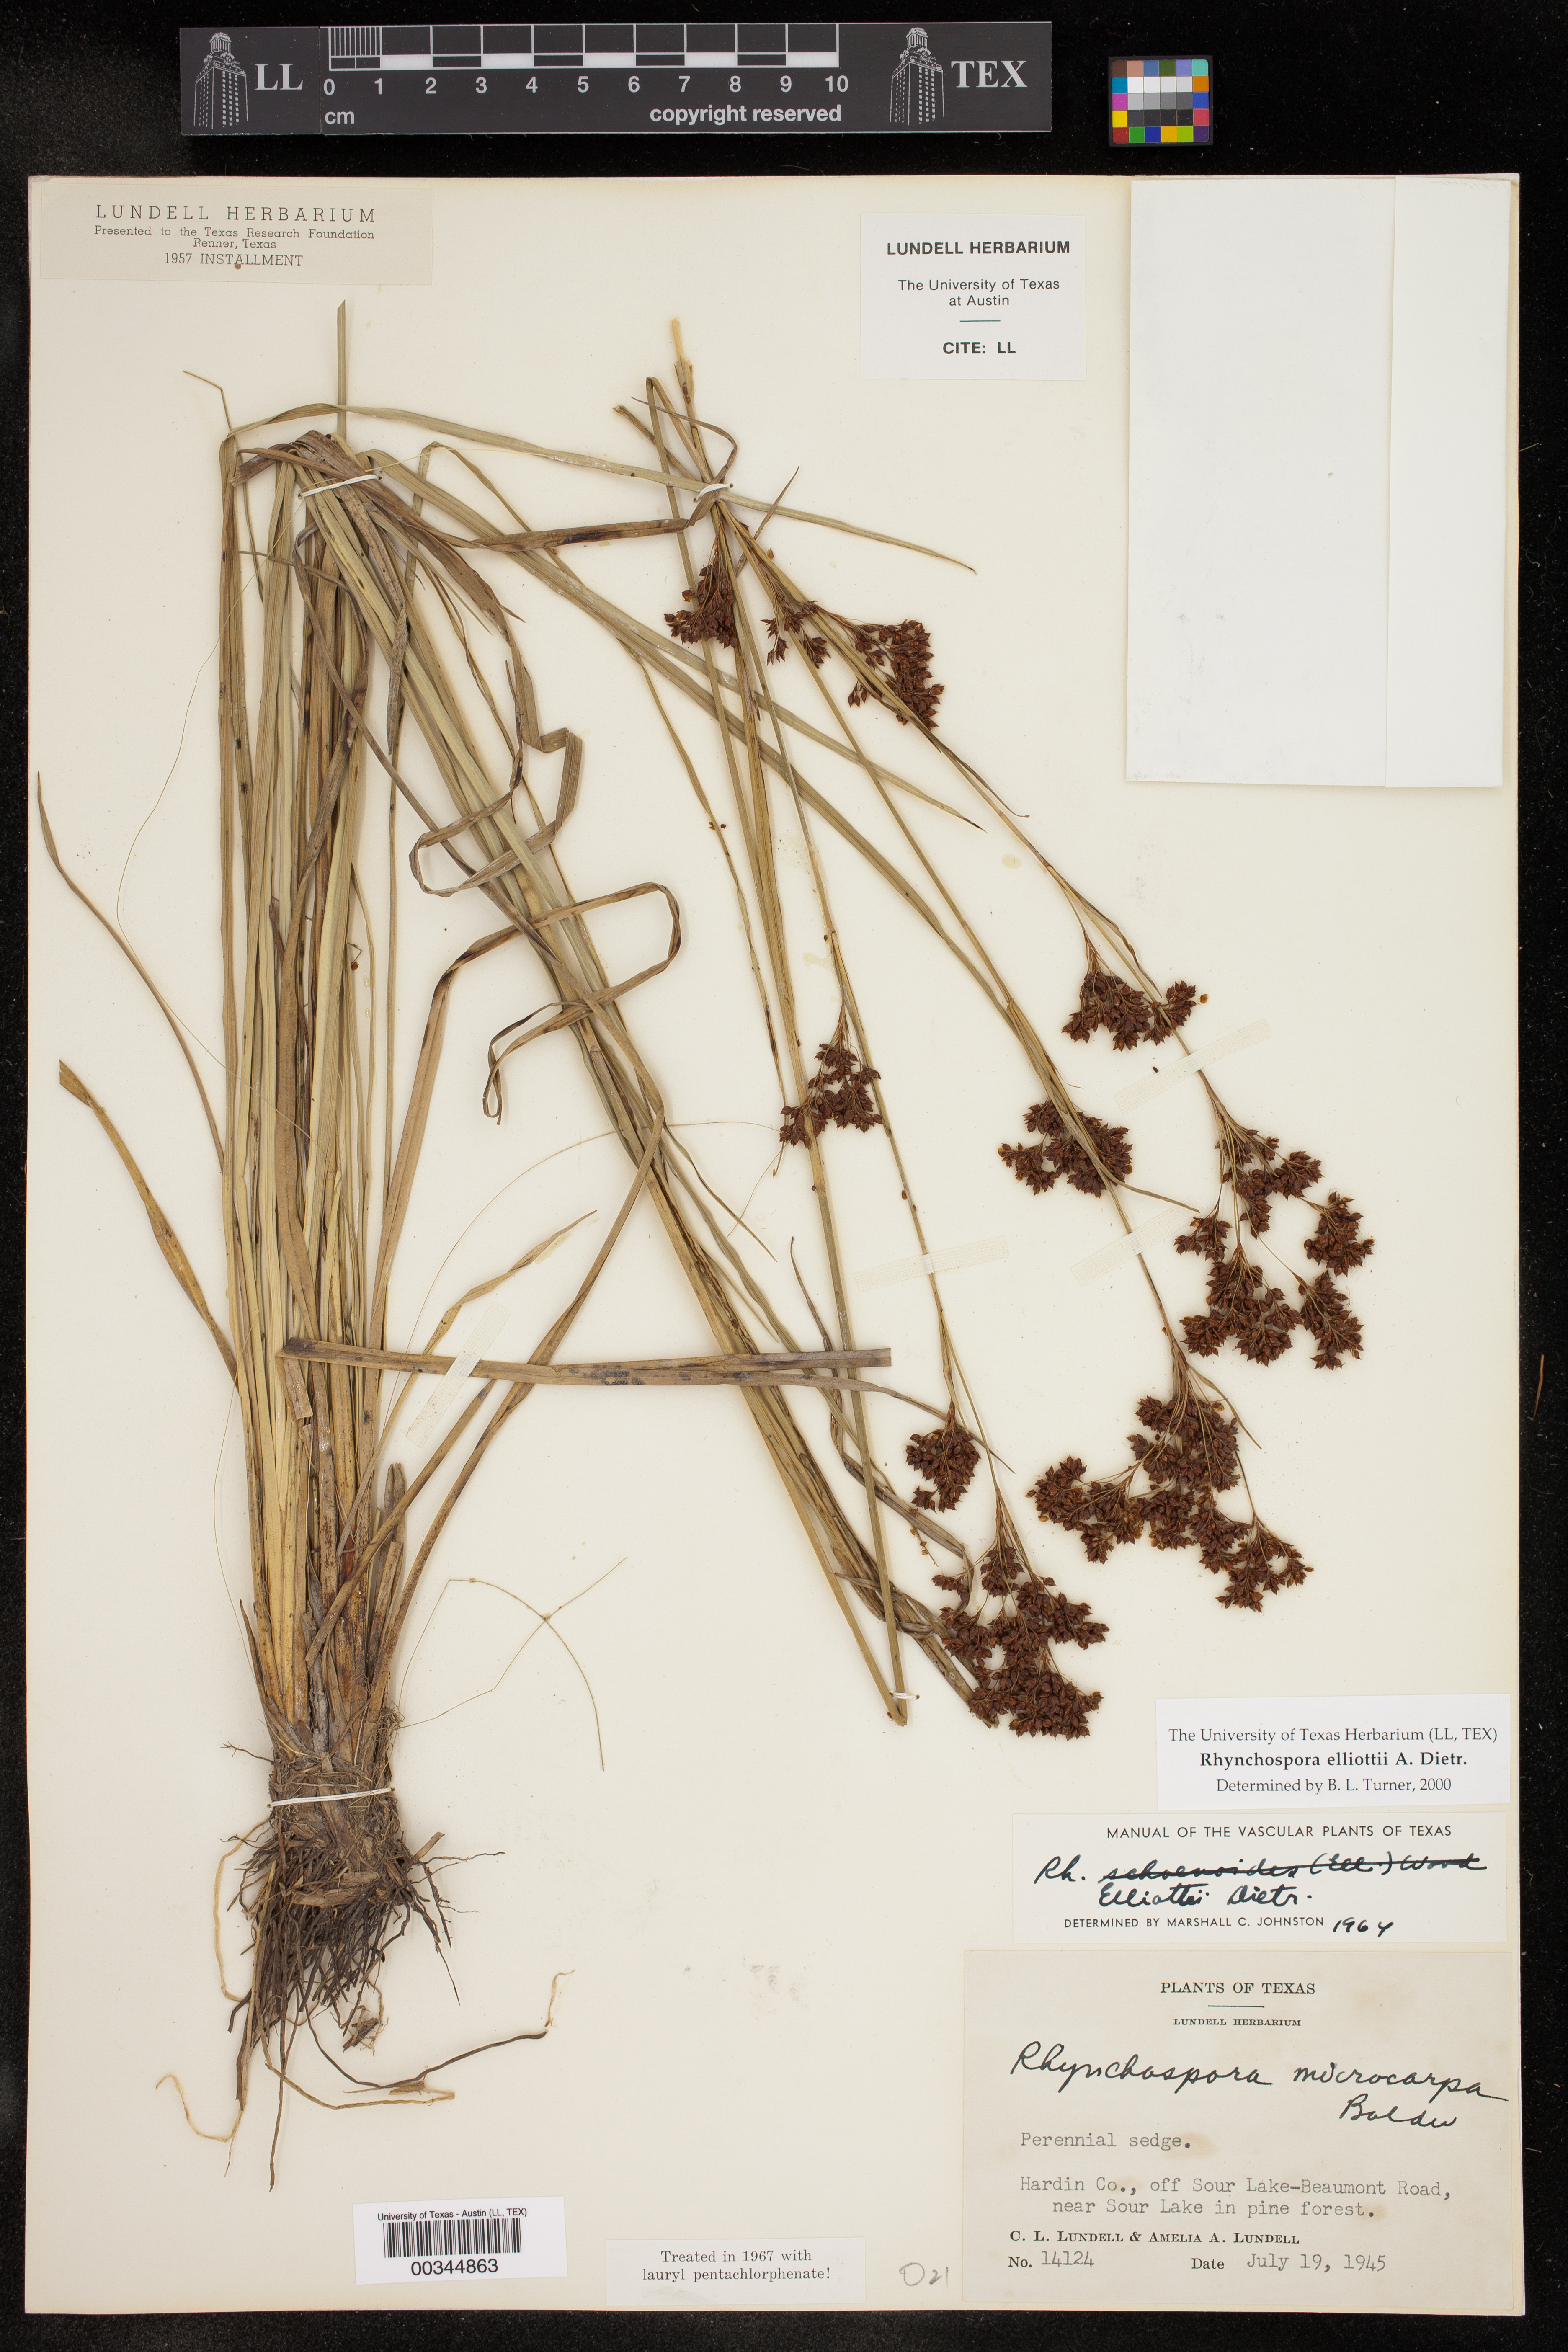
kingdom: Plantae
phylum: Tracheophyta
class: Liliopsida
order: Poales
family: Cyperaceae
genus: Rhynchospora
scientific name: Rhynchospora elliottii
